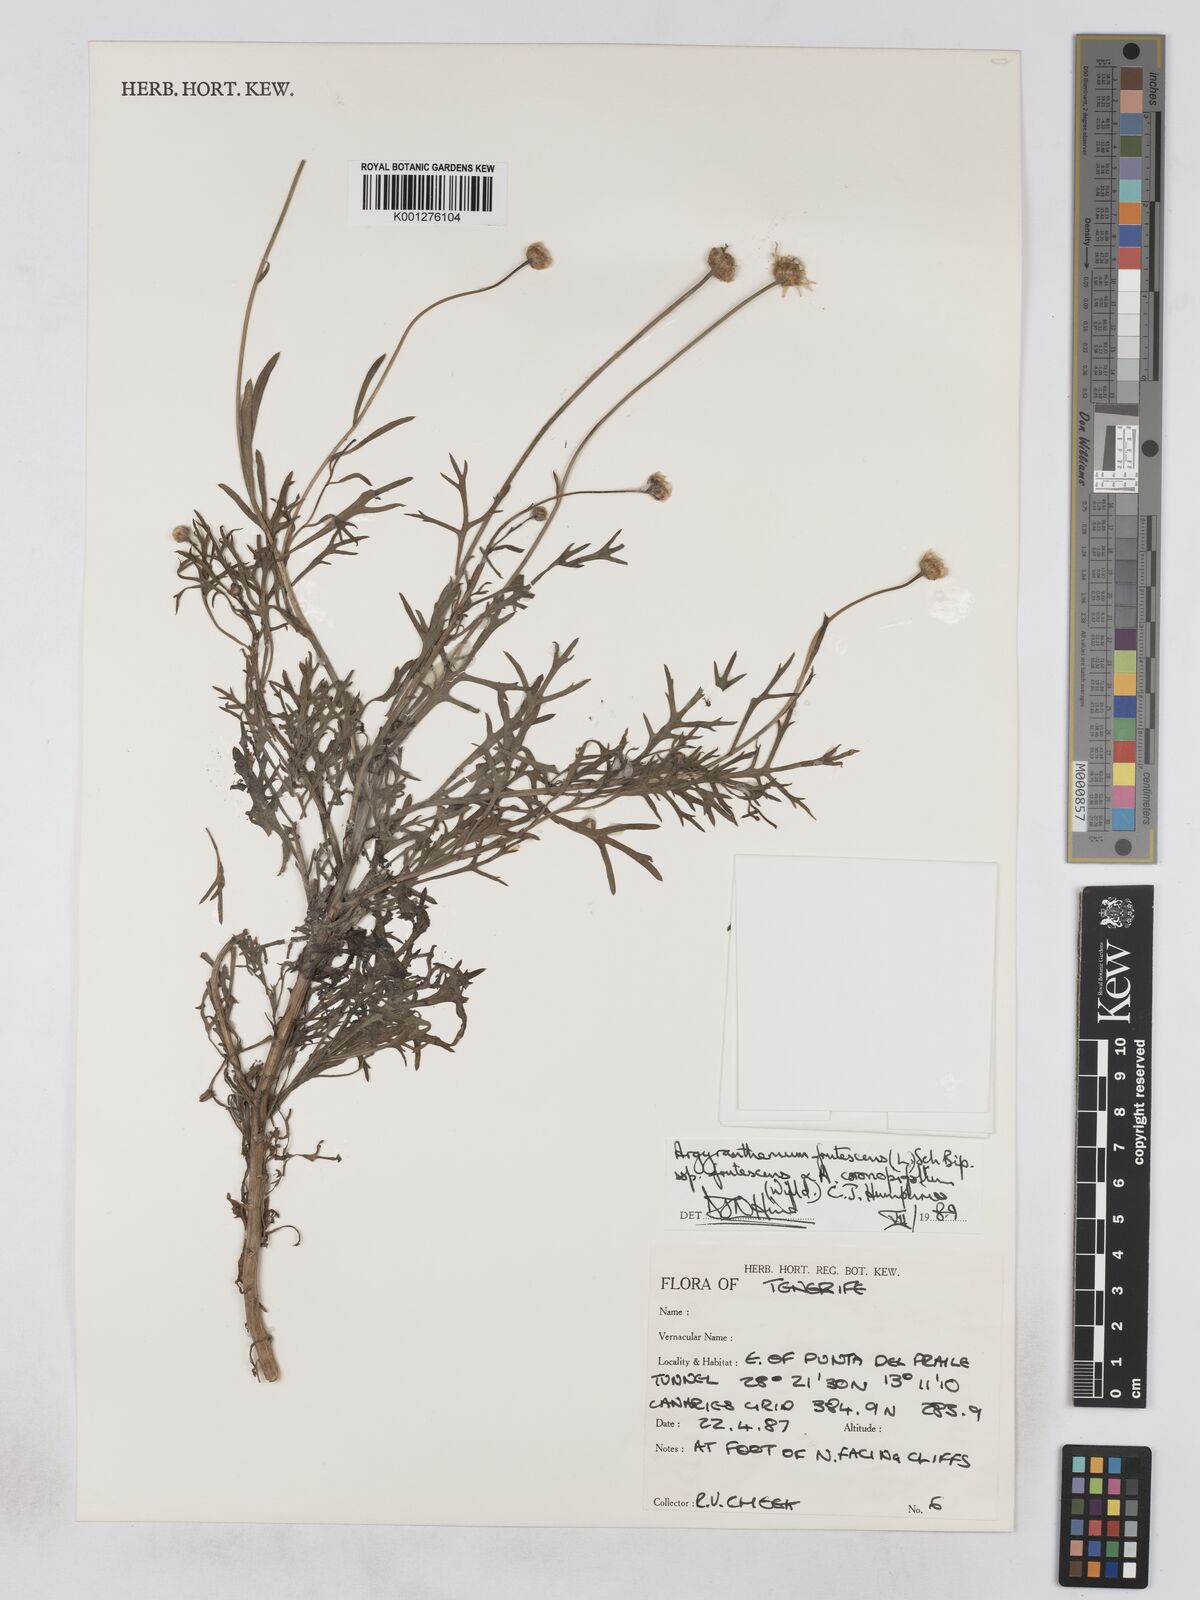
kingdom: Plantae
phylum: Tracheophyta
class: Magnoliopsida
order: Asterales
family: Asteraceae
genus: Argyranthemum
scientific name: Argyranthemum frutescens
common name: Paris daisy
